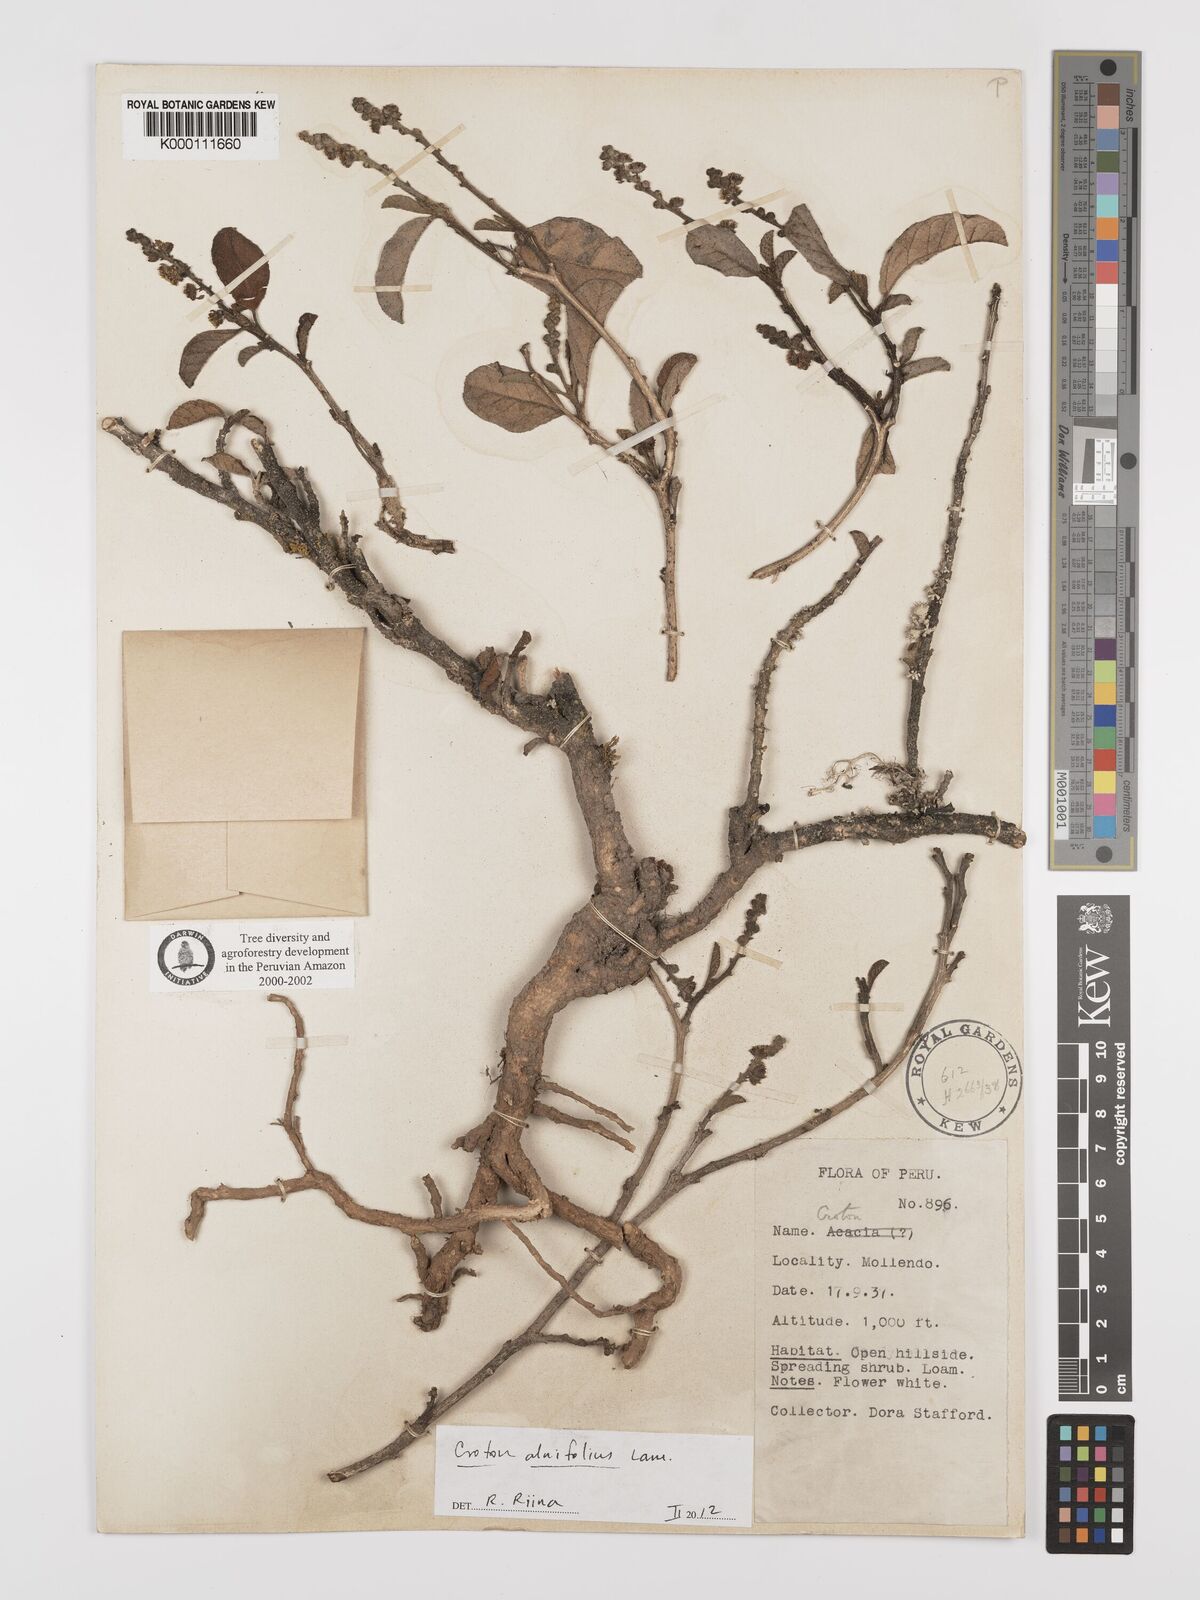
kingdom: Plantae
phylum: Tracheophyta
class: Magnoliopsida
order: Malpighiales
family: Euphorbiaceae
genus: Croton
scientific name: Croton alnifolius
